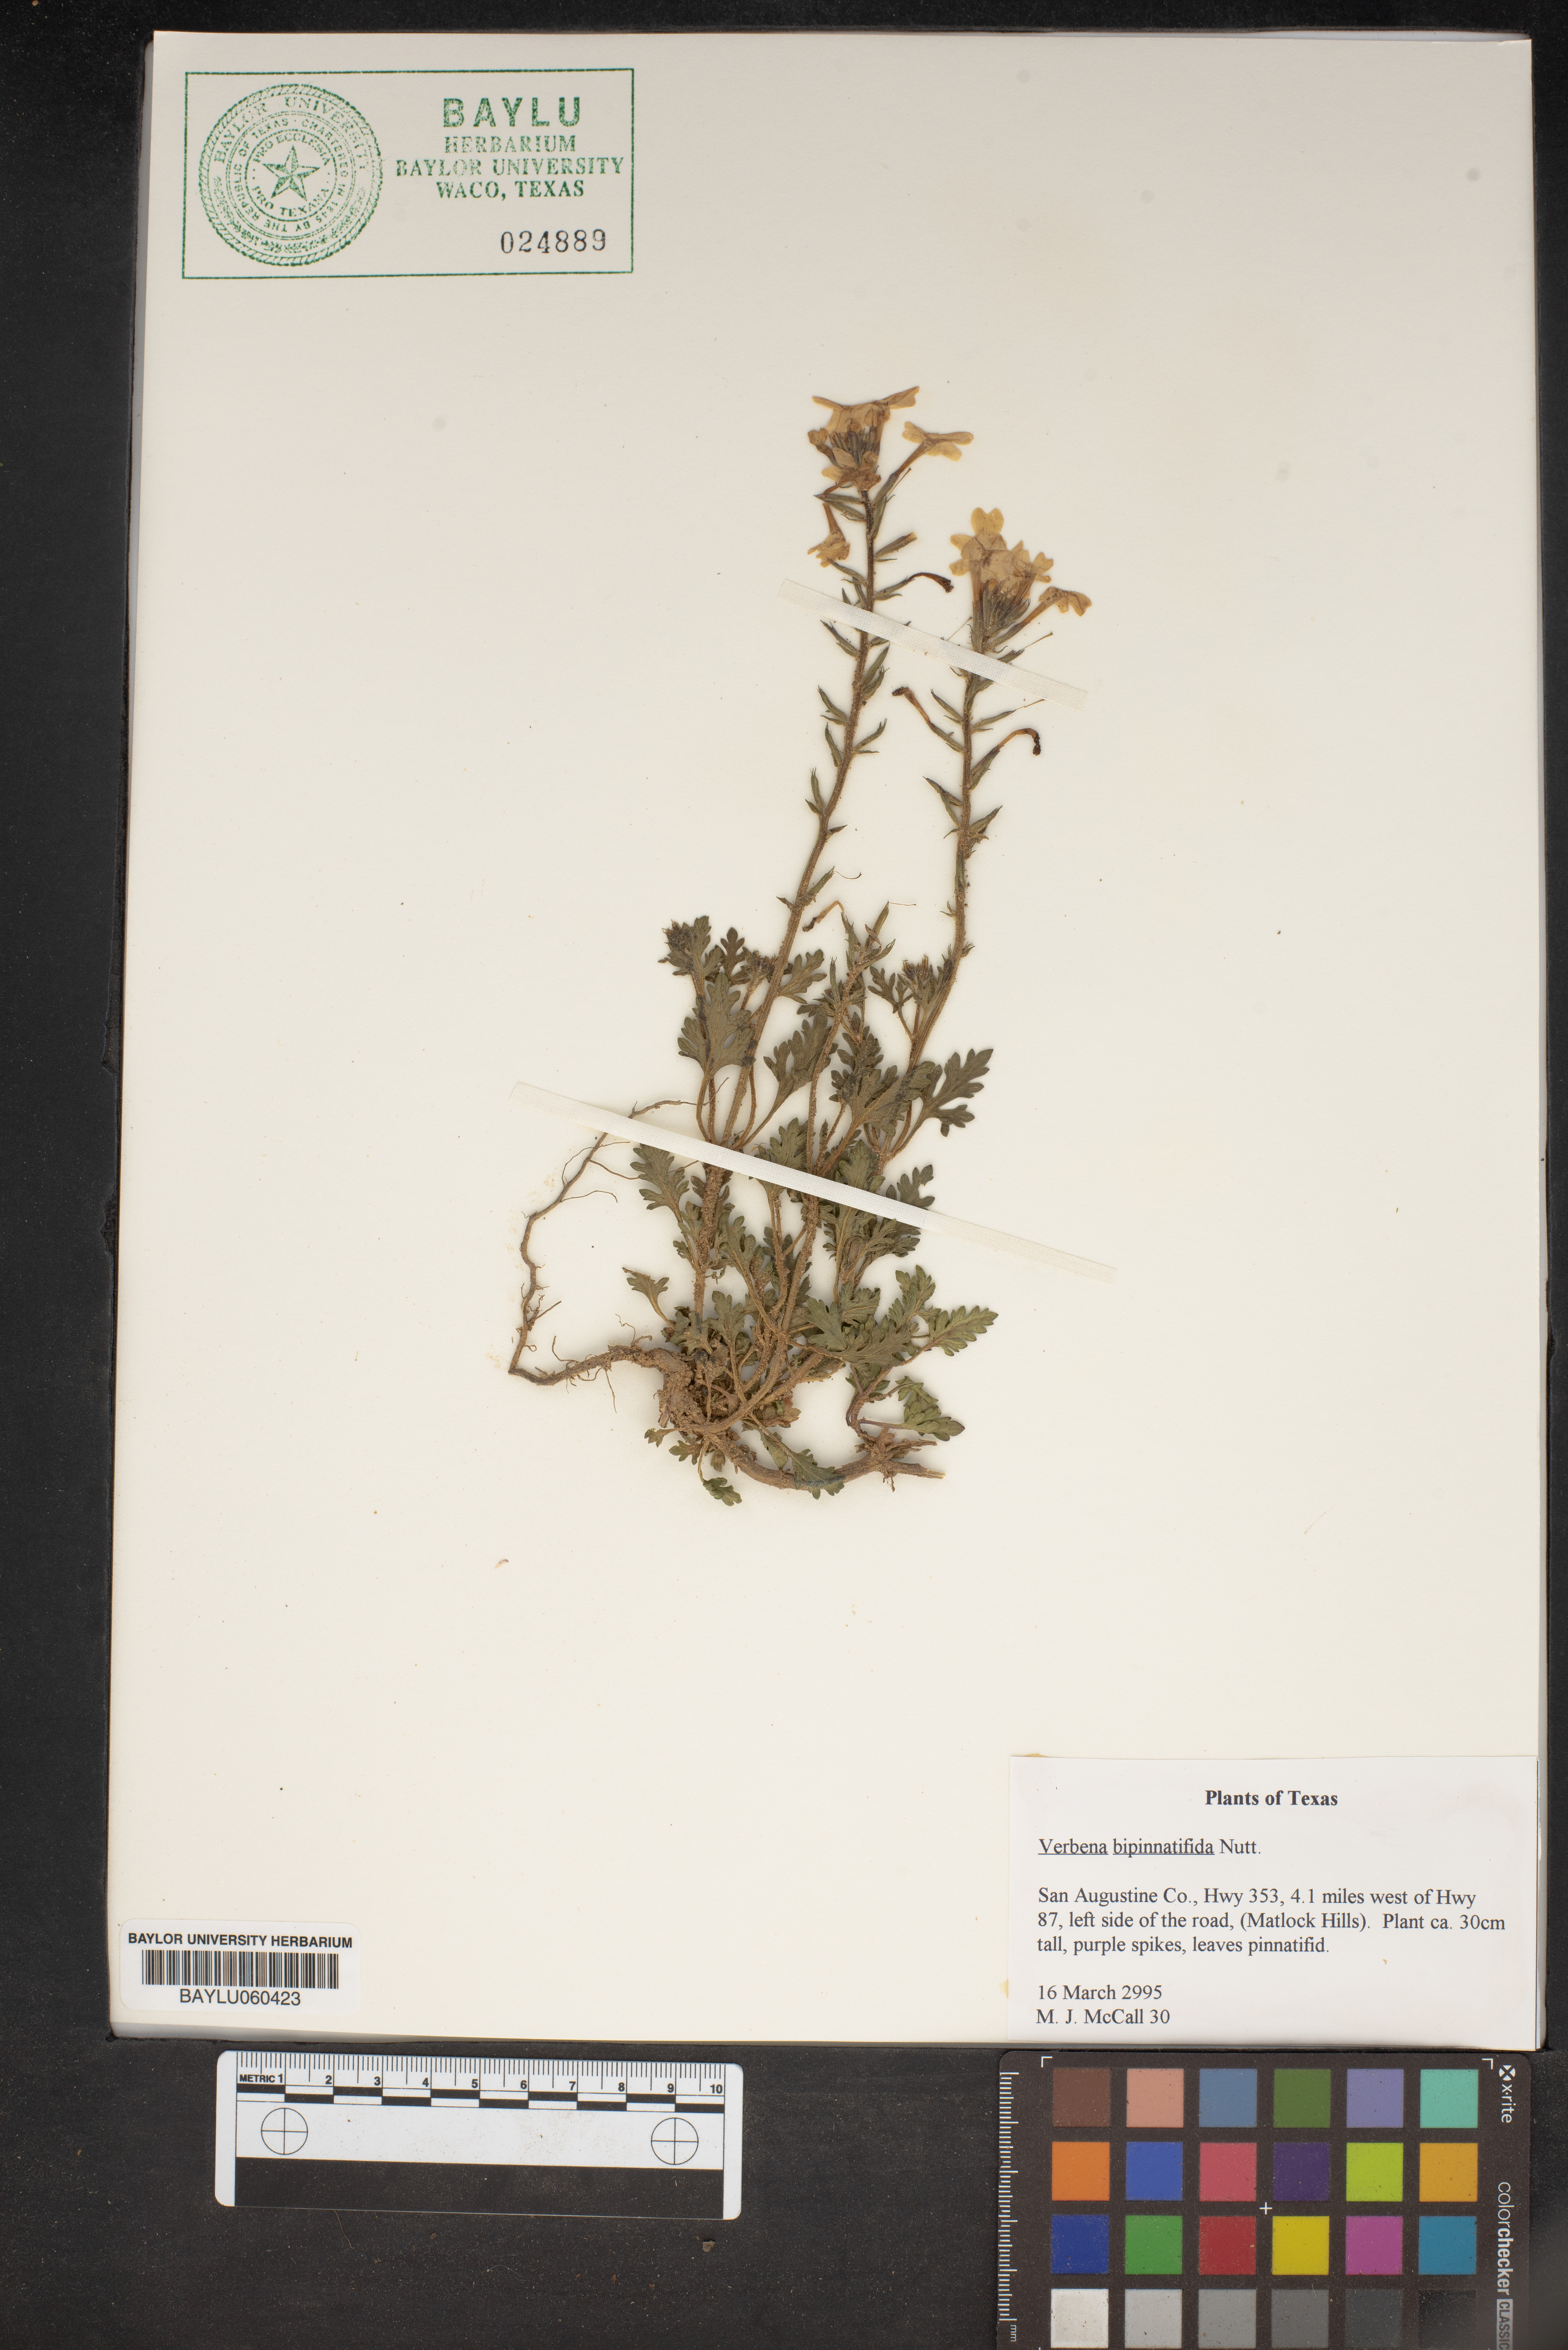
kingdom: Plantae
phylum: Tracheophyta
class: Magnoliopsida
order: Lamiales
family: Verbenaceae
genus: Verbena
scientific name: Verbena bipinnatifida
